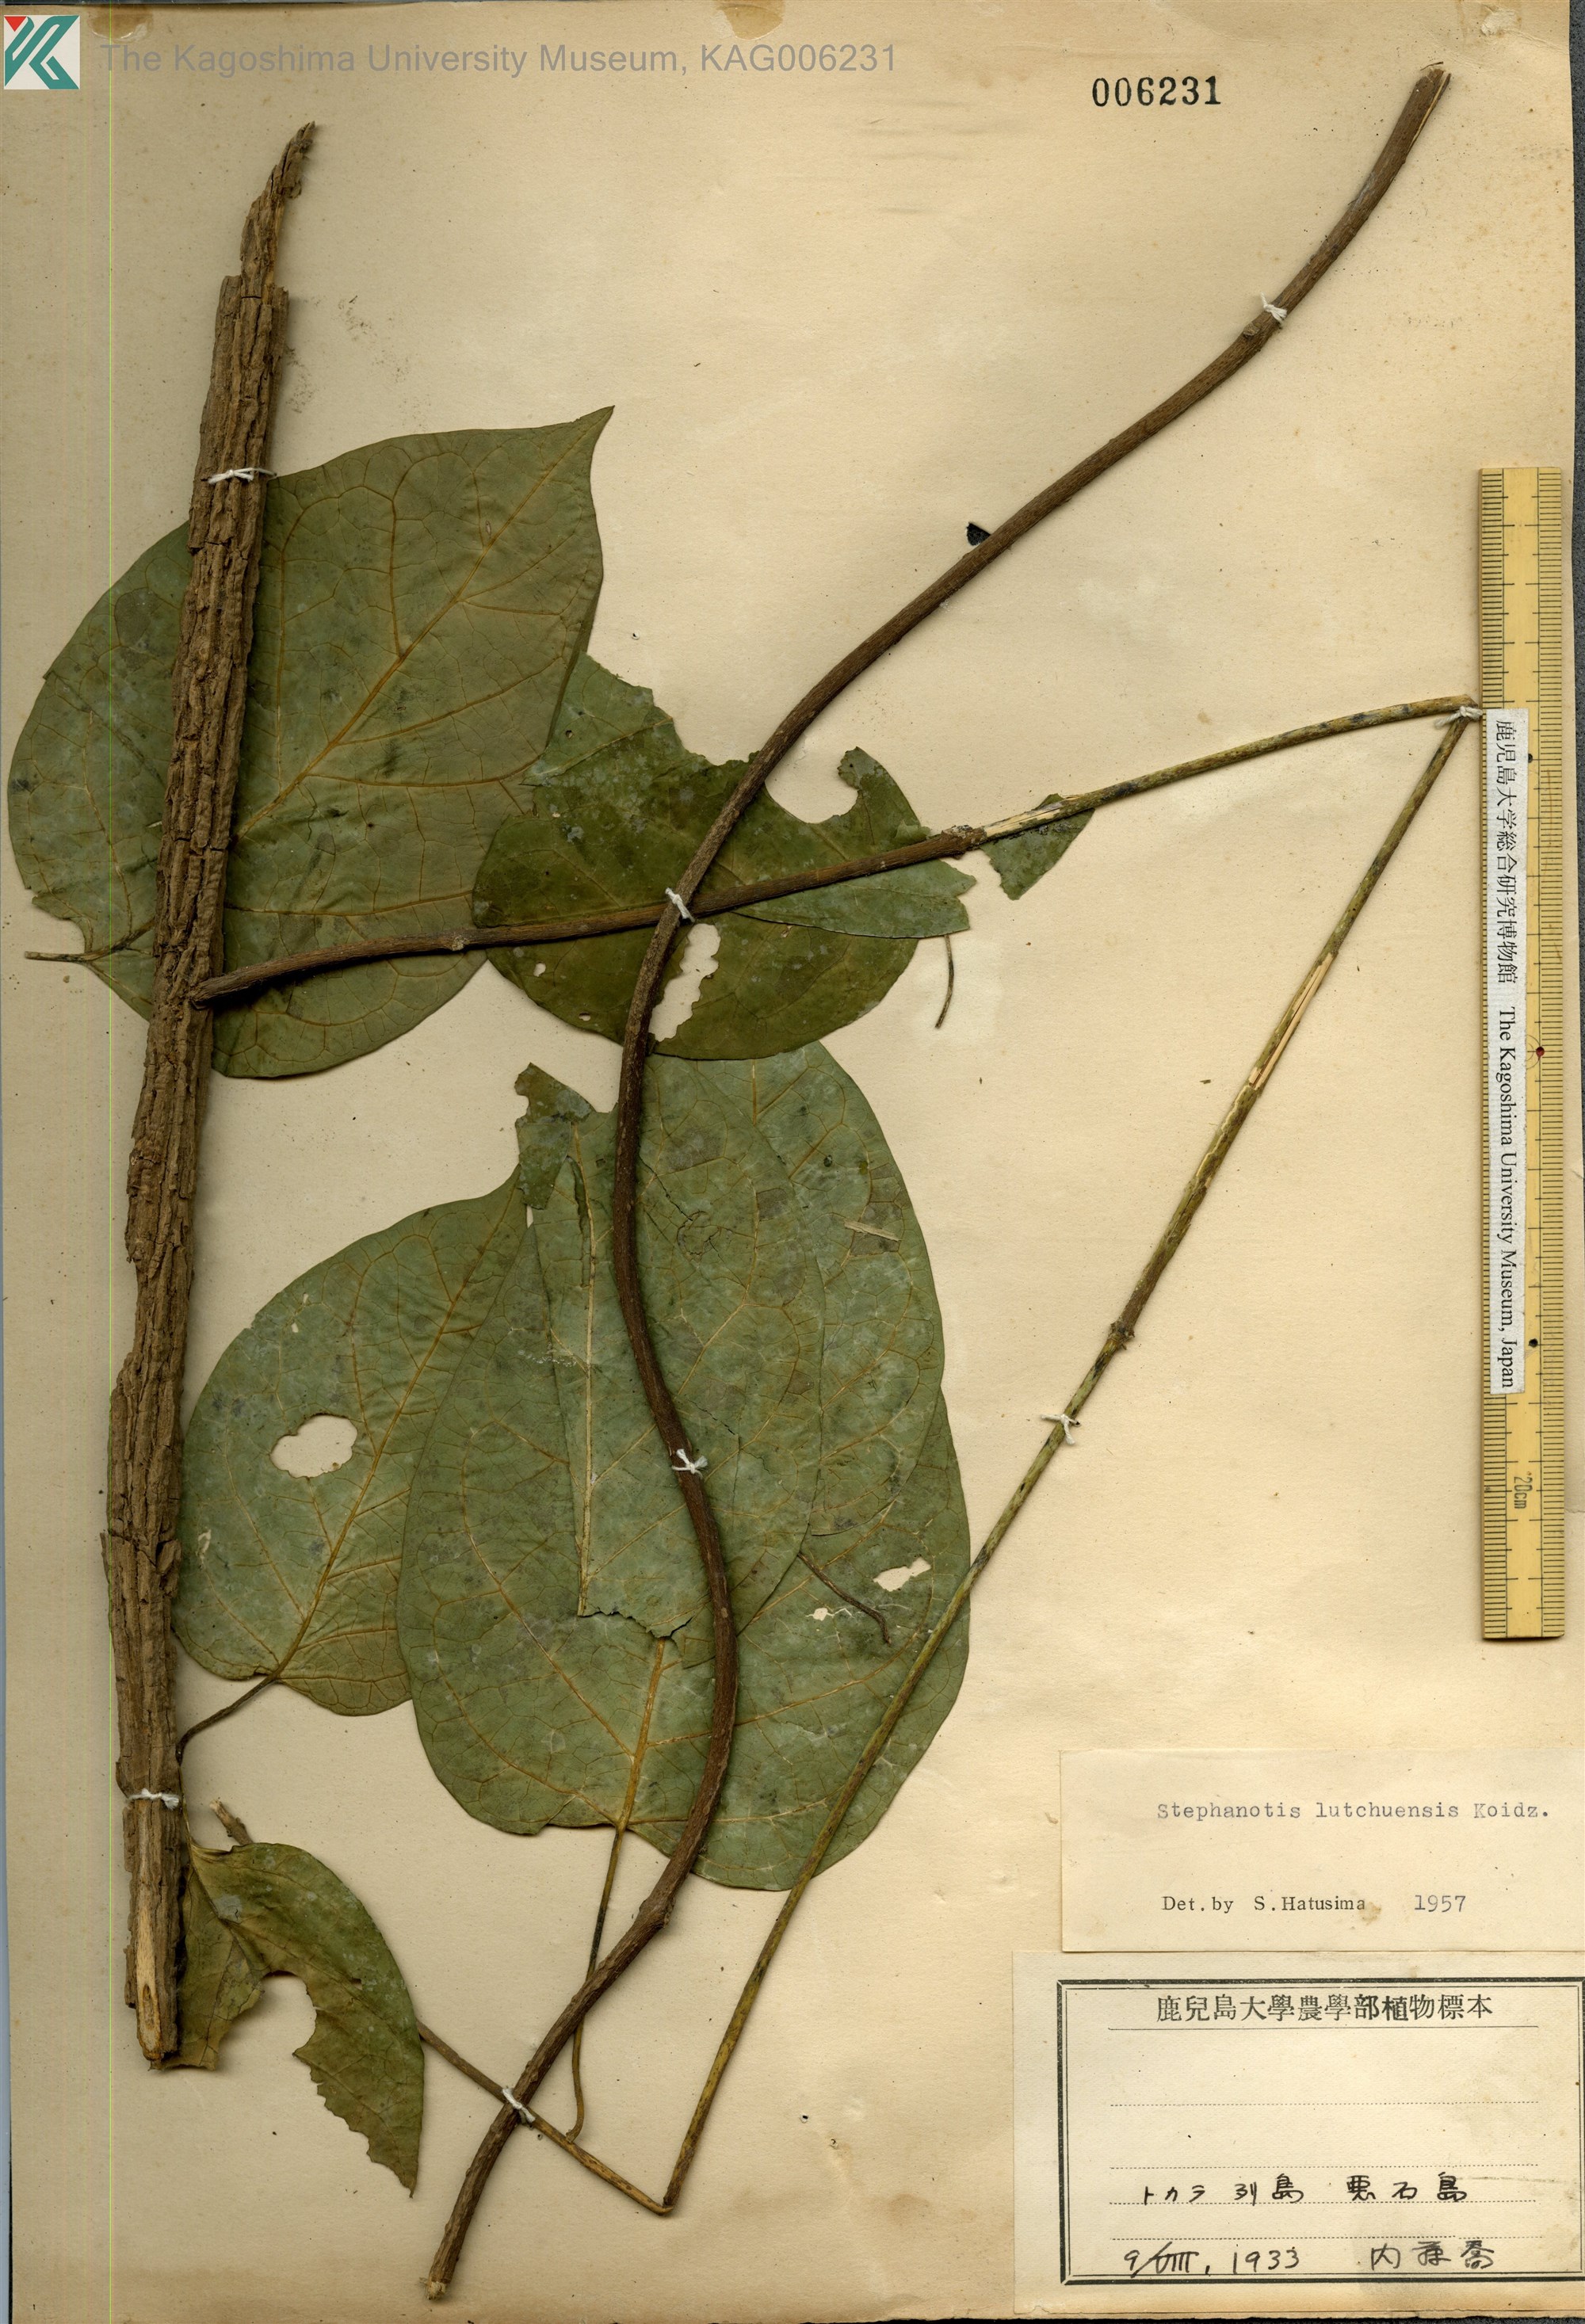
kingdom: Plantae
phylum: Tracheophyta
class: Magnoliopsida
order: Gentianales
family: Apocynaceae
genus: Jasminanthes
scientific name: Jasminanthes mucronata
